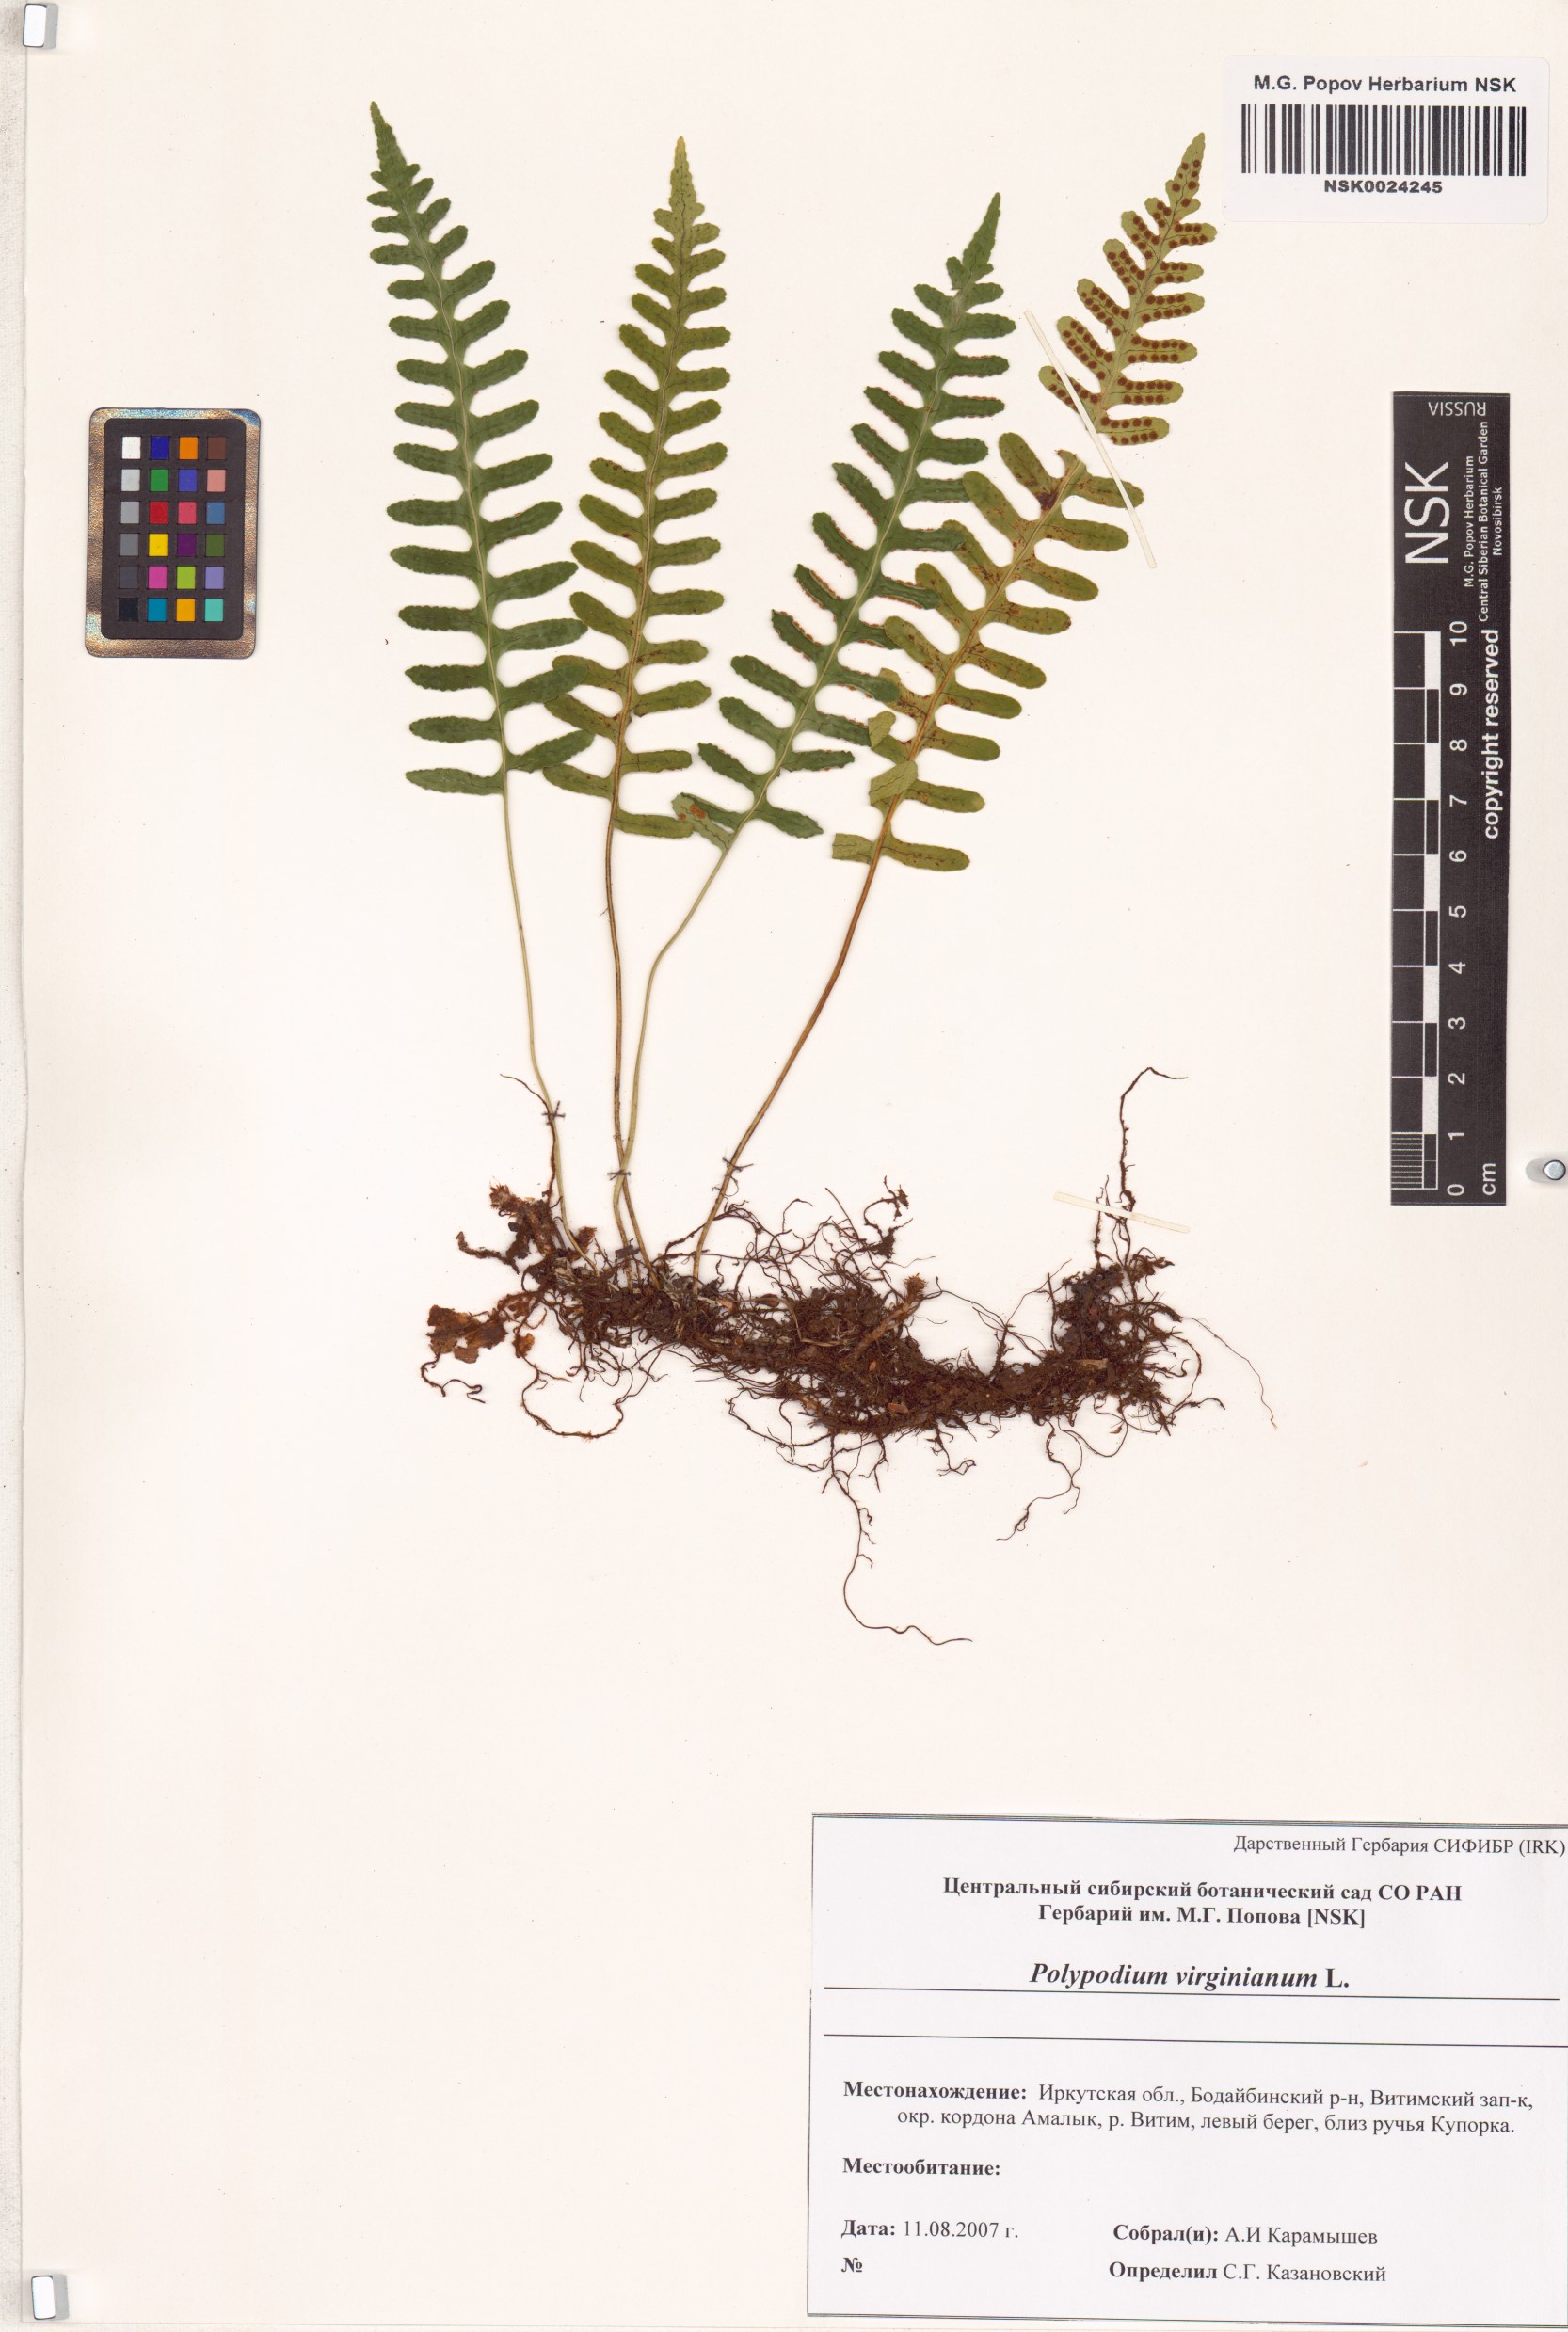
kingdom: Plantae
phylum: Tracheophyta
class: Polypodiopsida
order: Polypodiales
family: Polypodiaceae
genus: Polypodium
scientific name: Polypodium virginianum
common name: American wall fern
